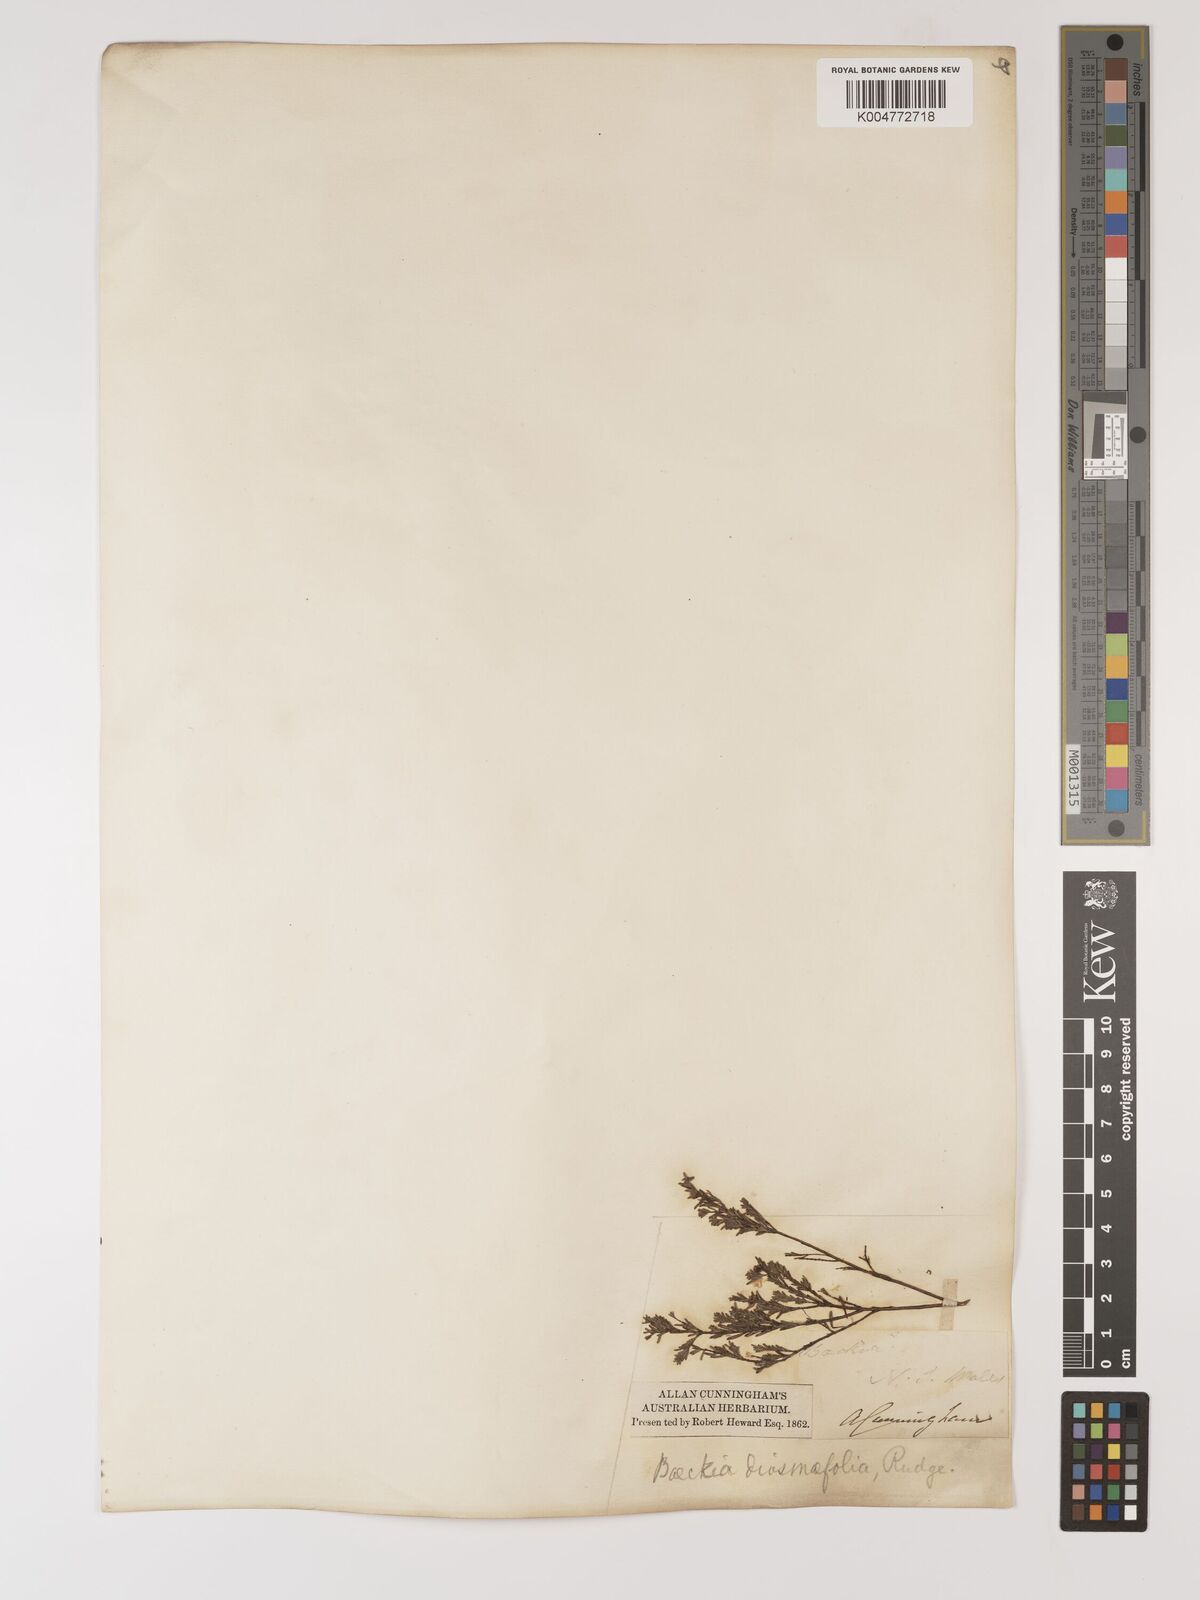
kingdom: Plantae
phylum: Tracheophyta
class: Magnoliopsida
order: Myrtales
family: Myrtaceae
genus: Baeckea
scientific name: Baeckea diosmifolia
